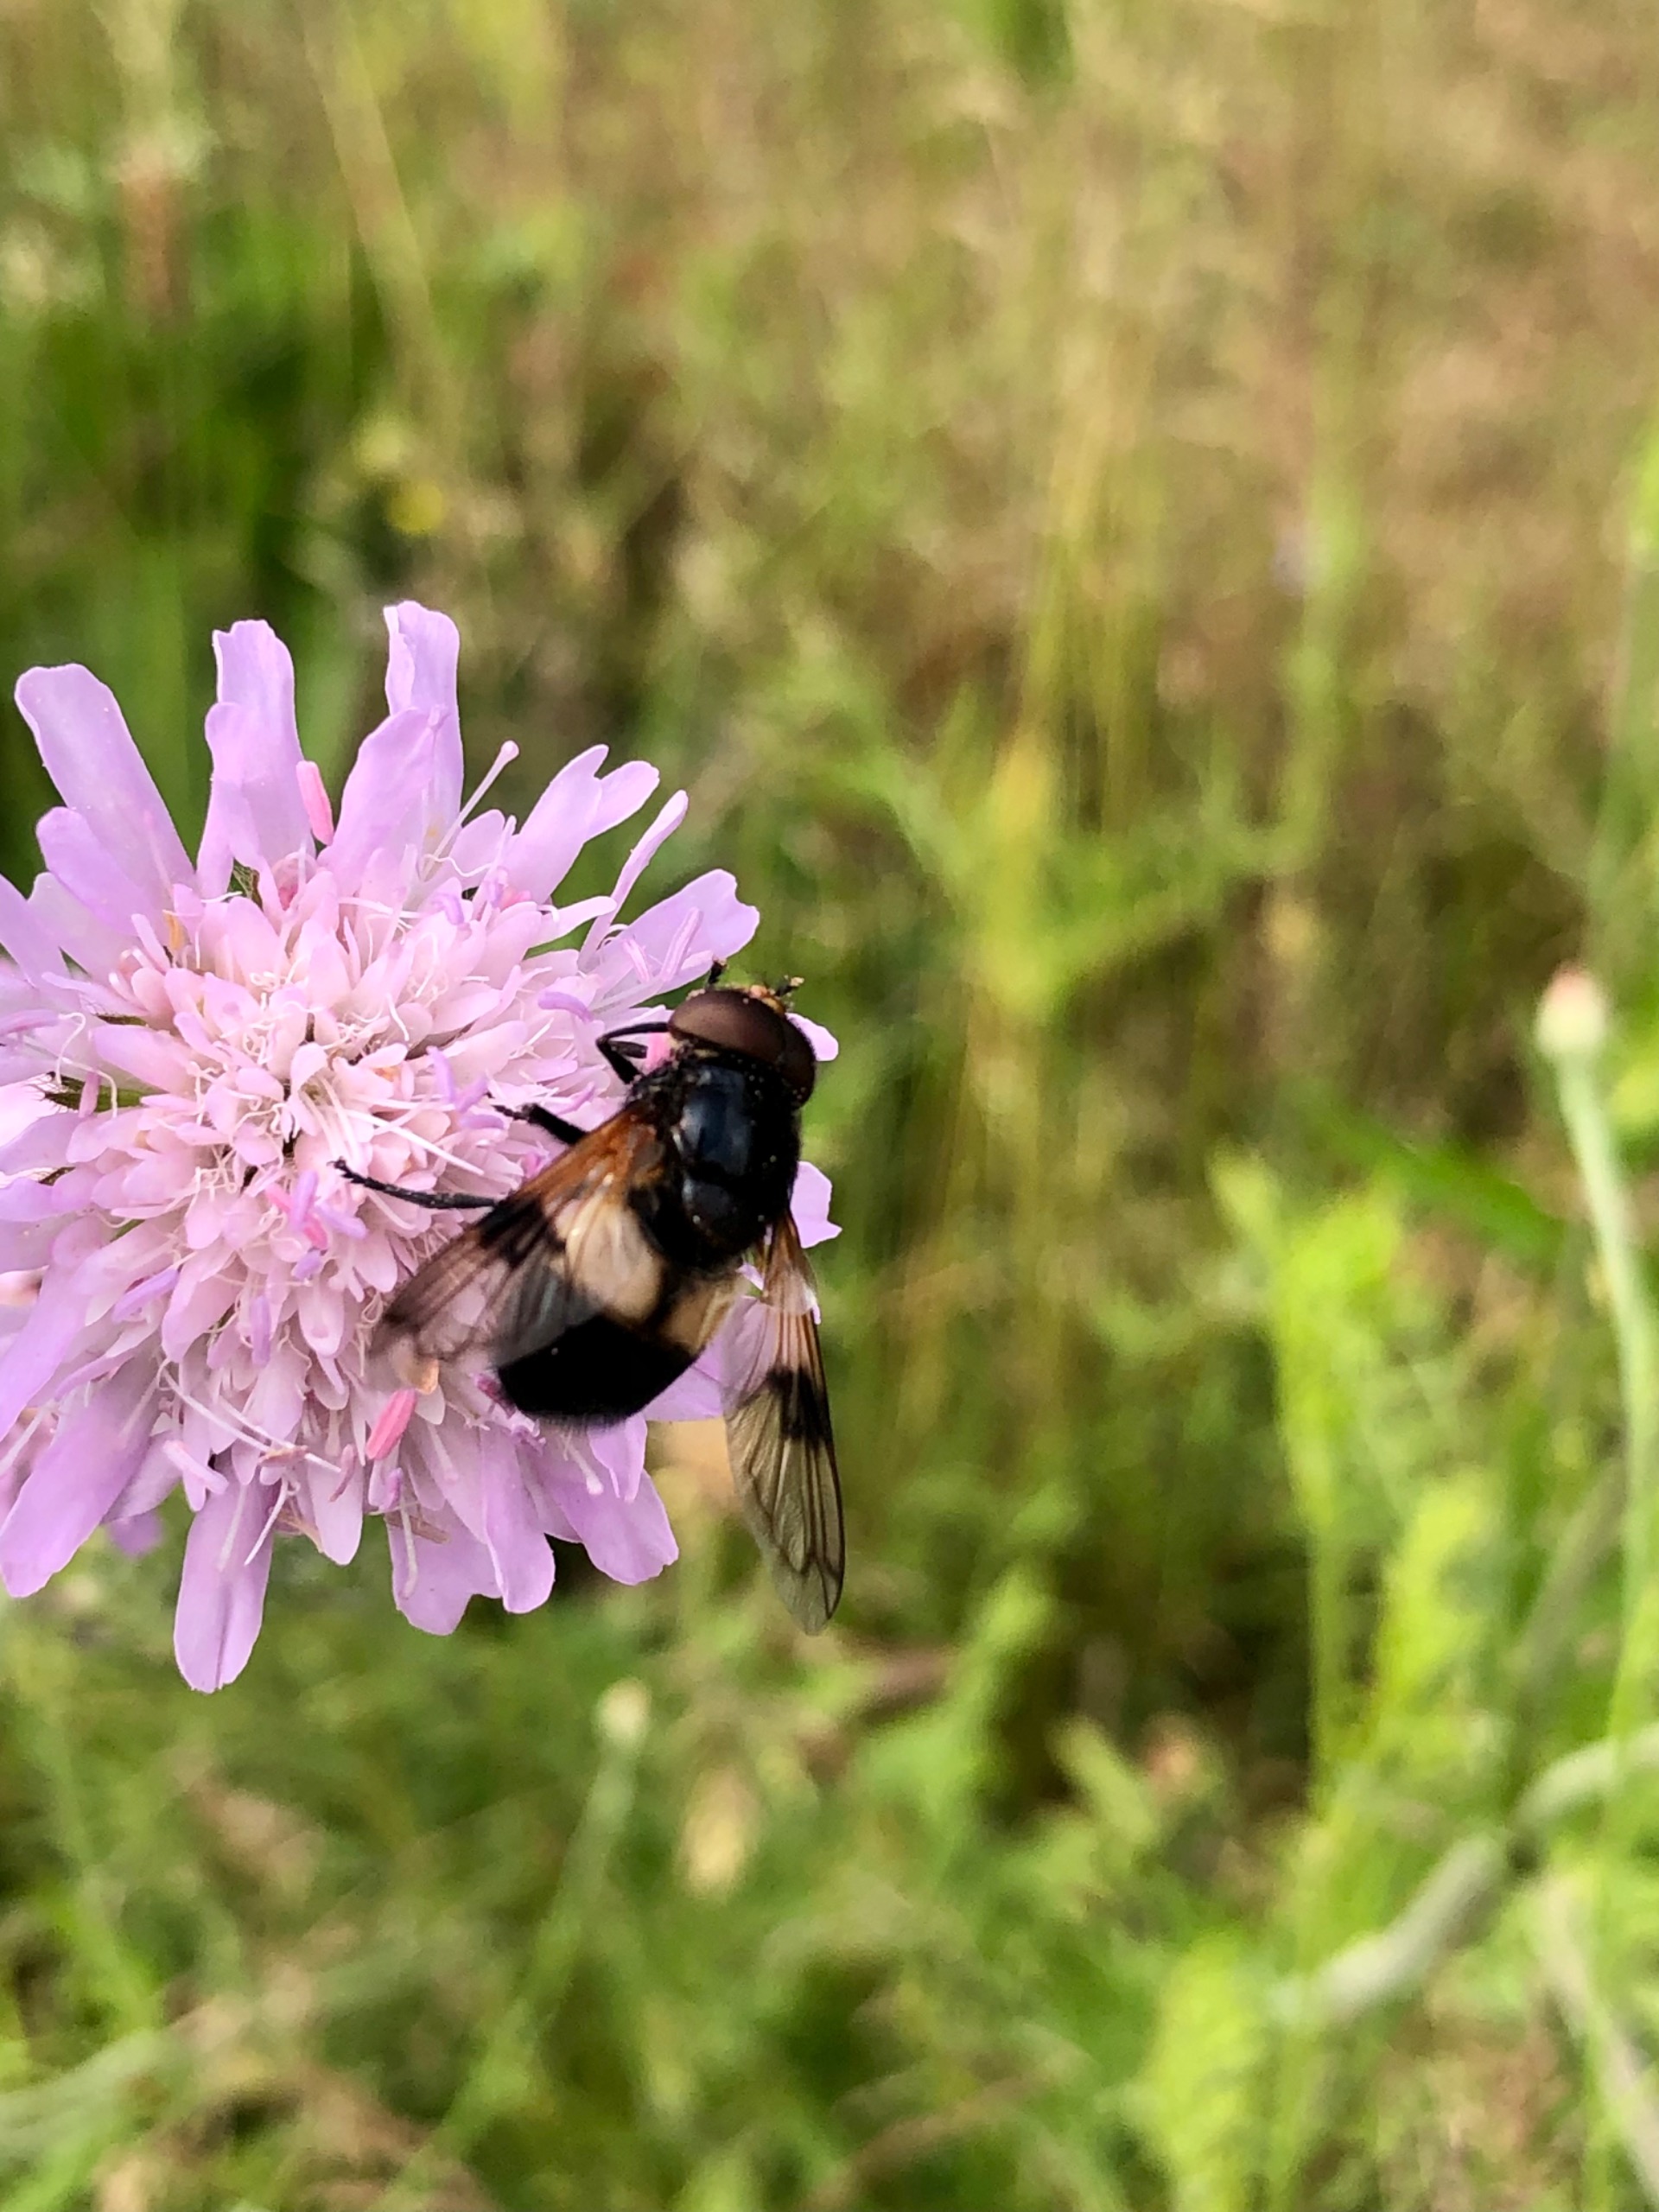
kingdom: Animalia
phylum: Arthropoda
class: Insecta
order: Diptera
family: Syrphidae
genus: Volucella
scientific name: Volucella pellucens
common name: Hvidbåndet humlesvirreflue
